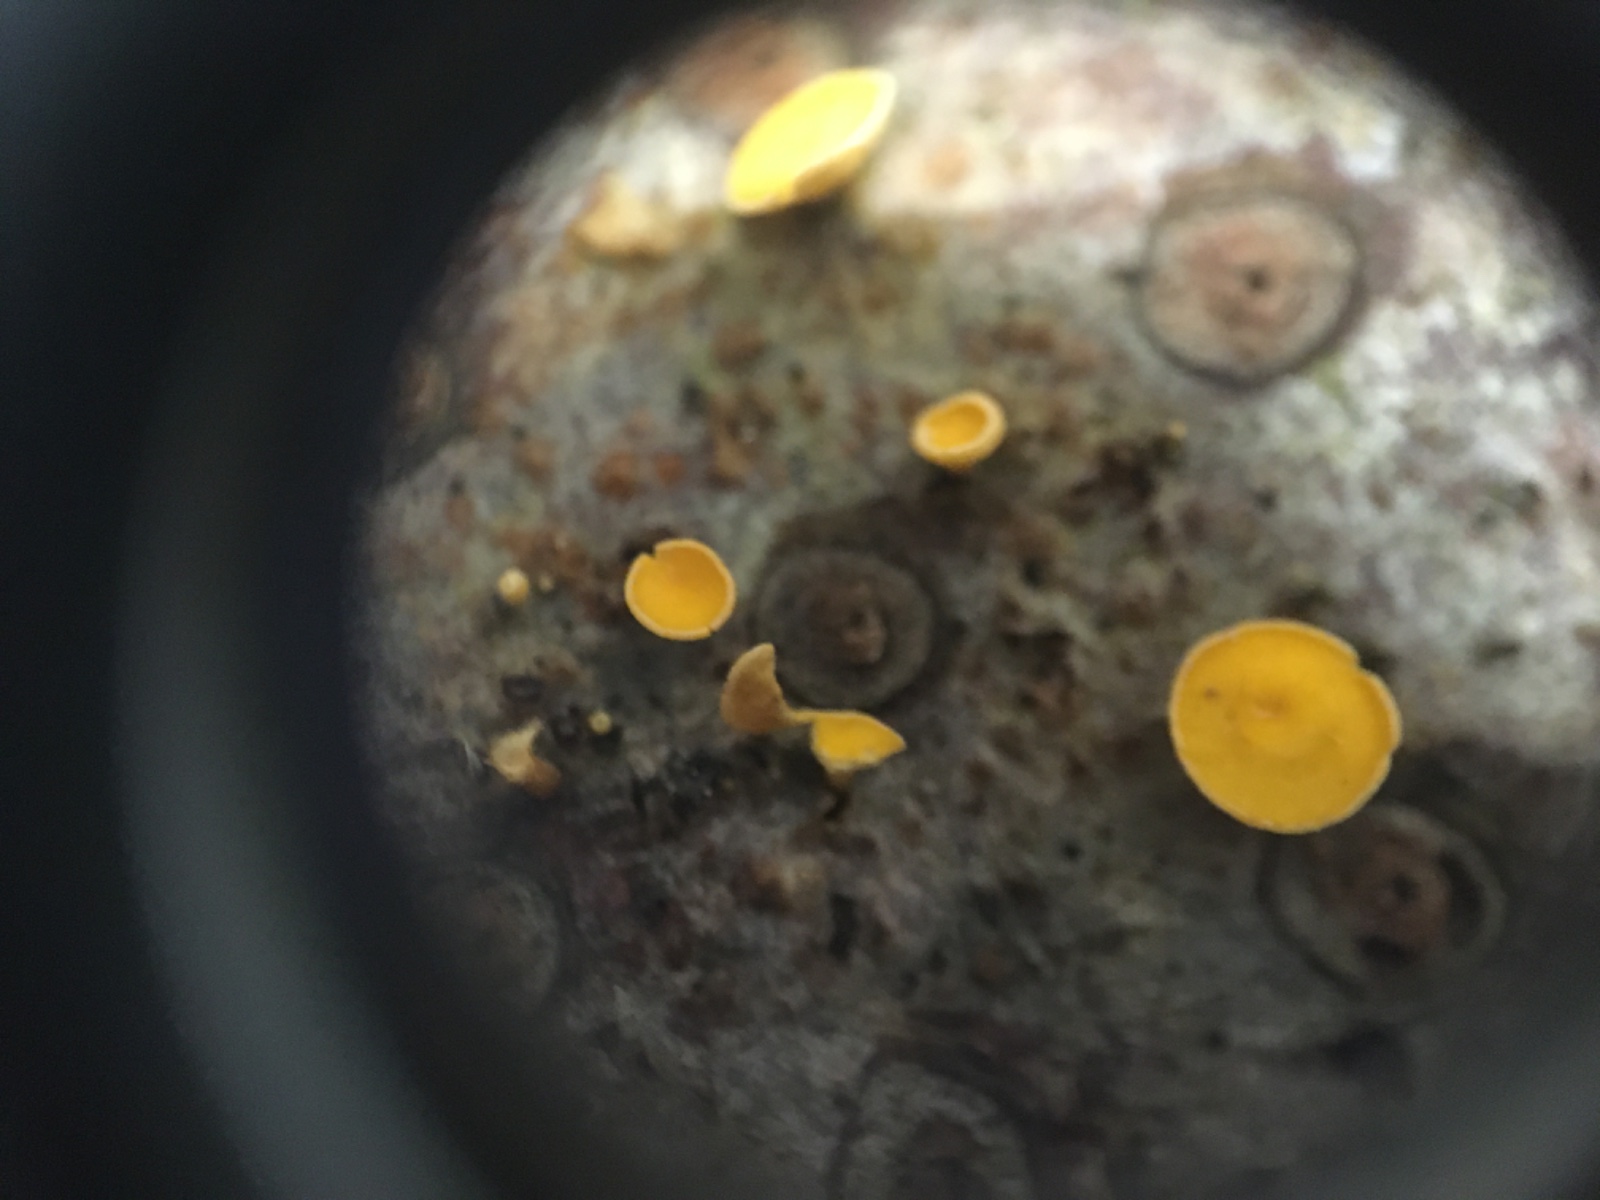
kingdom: Fungi
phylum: Ascomycota
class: Leotiomycetes
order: Helotiales
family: Lachnaceae
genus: Lachnellula
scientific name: Lachnellula subtilissima
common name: gran-frynseskive
